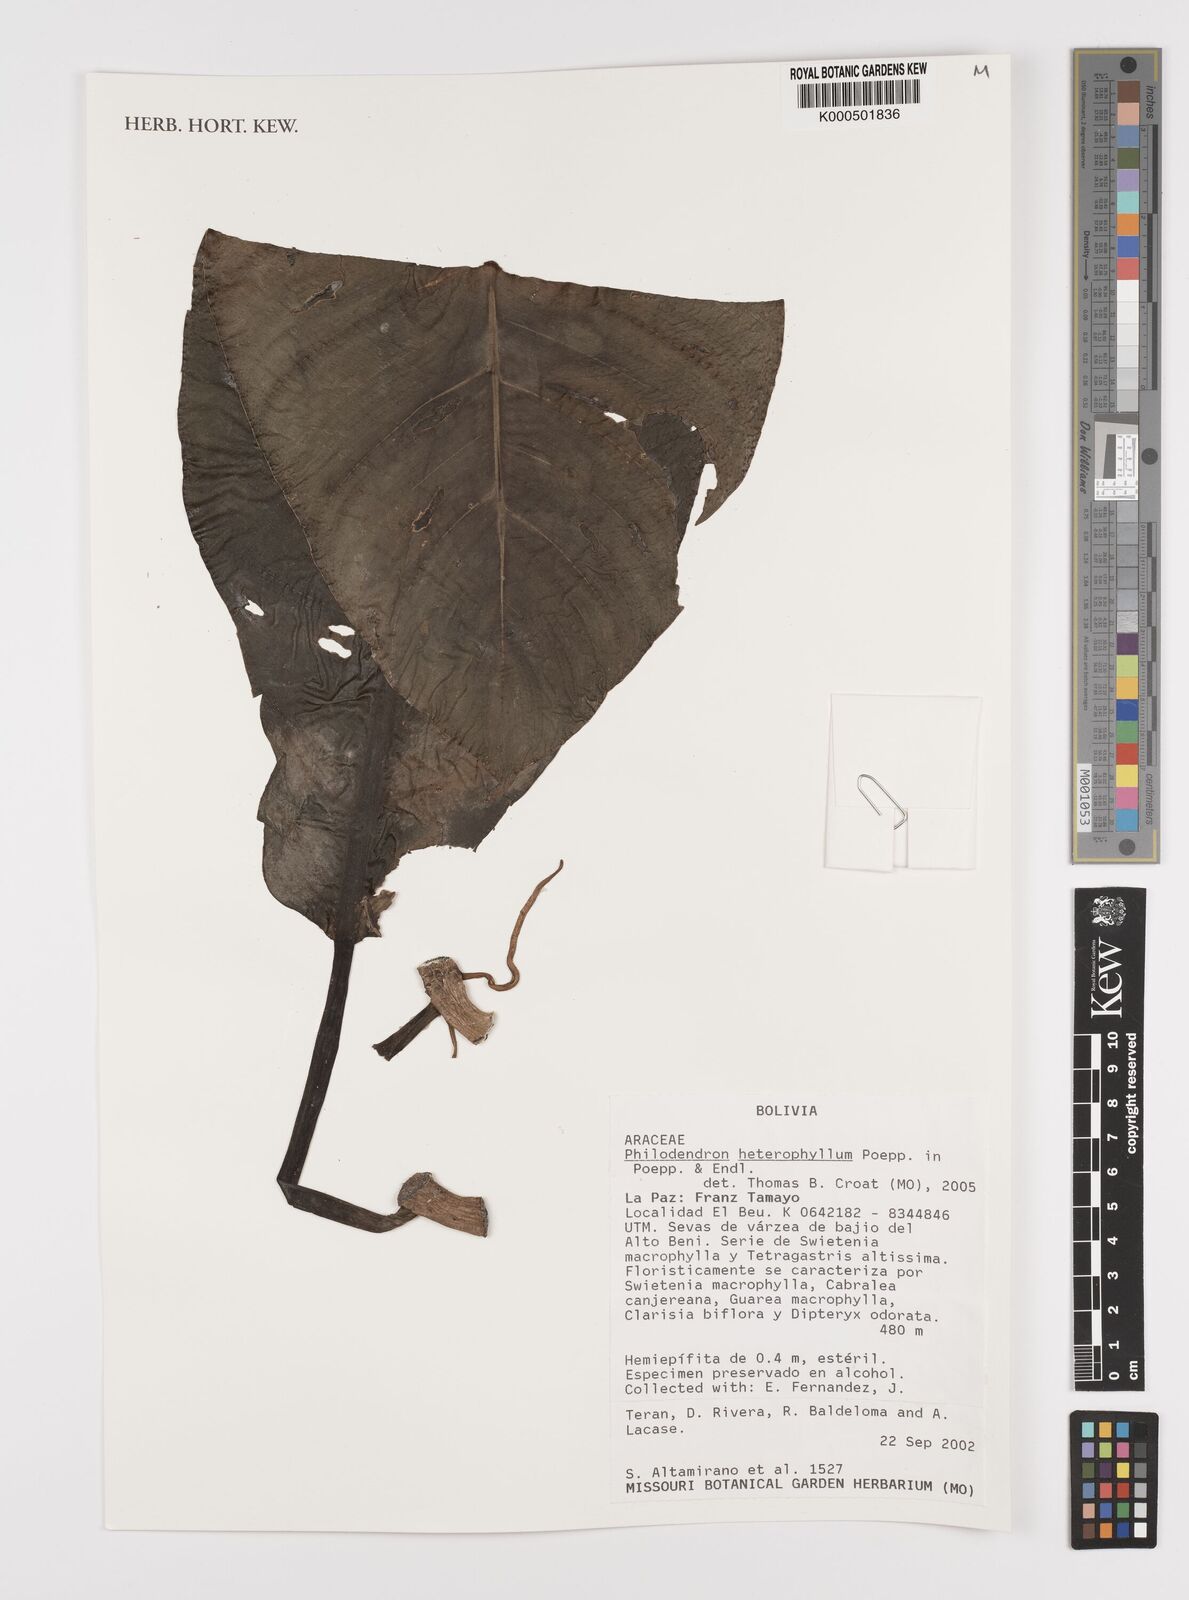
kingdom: Plantae
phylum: Tracheophyta
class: Liliopsida
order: Alismatales
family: Araceae
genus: Philodendron
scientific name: Philodendron heterophyllum
